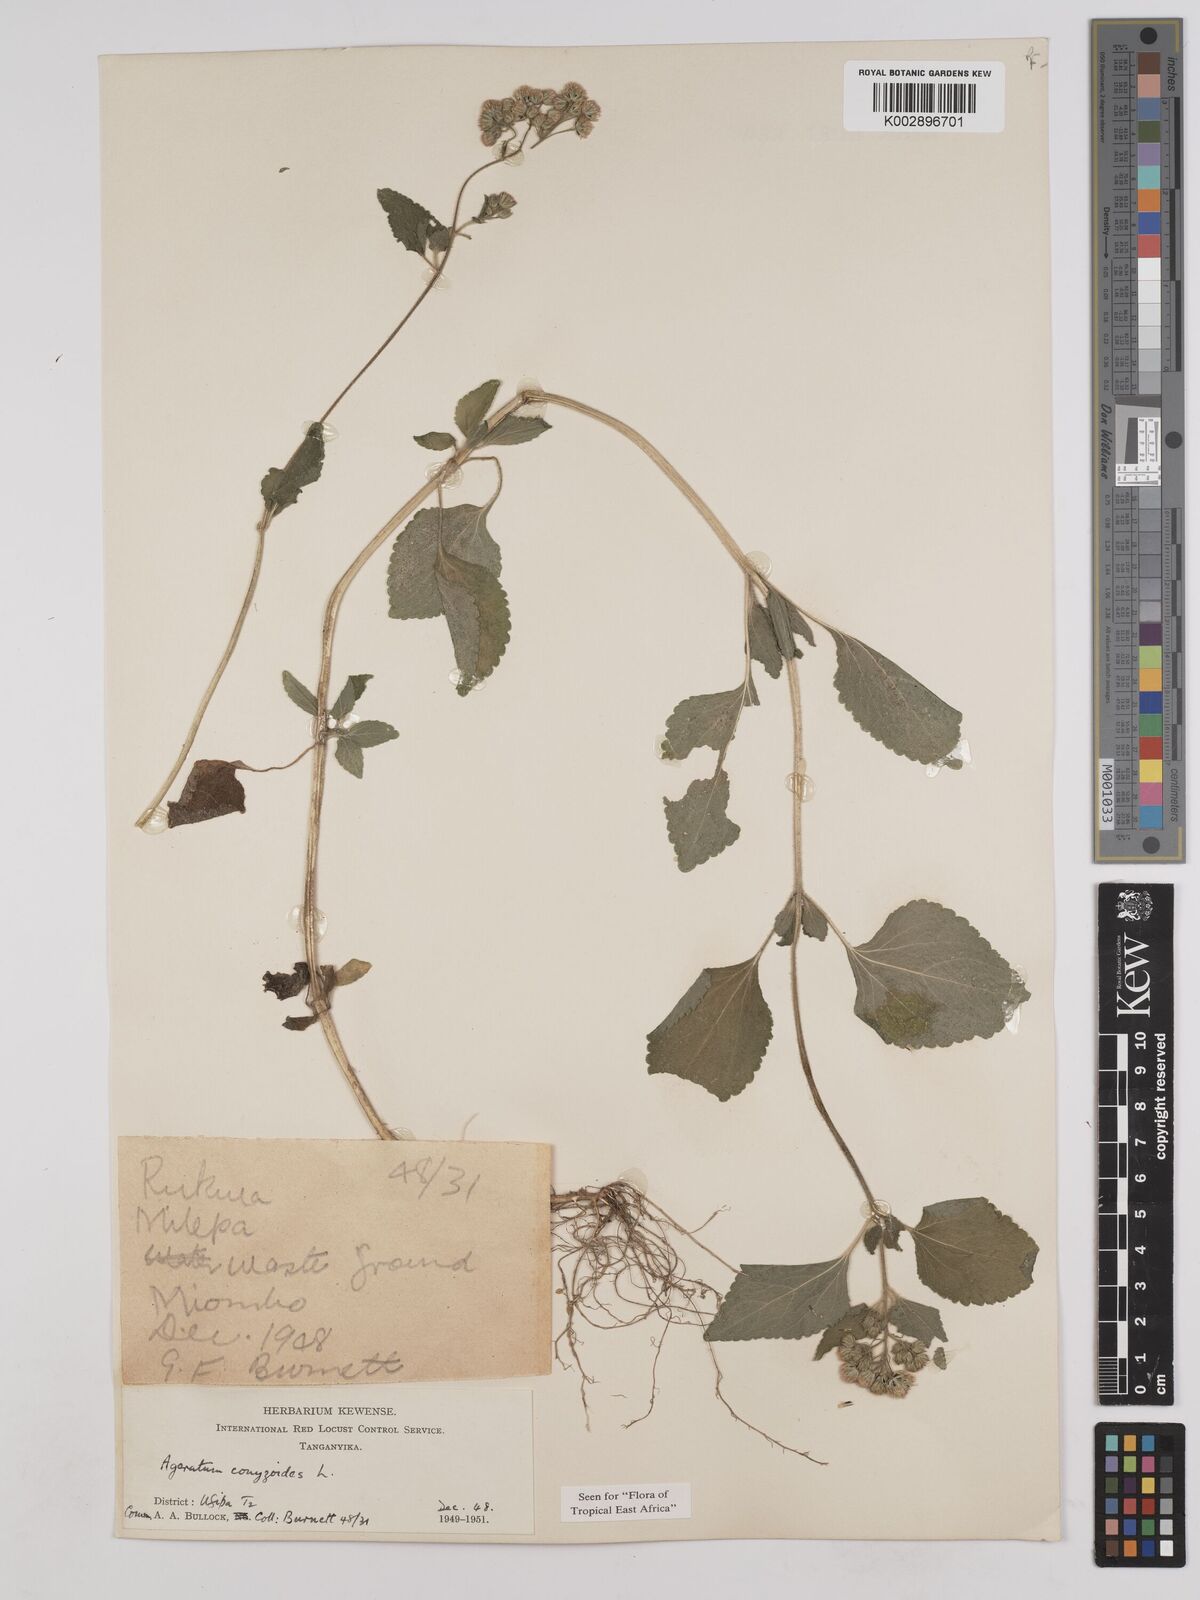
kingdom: Plantae
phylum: Tracheophyta
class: Magnoliopsida
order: Asterales
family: Asteraceae
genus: Ageratum
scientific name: Ageratum conyzoides
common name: Tropical whiteweed
